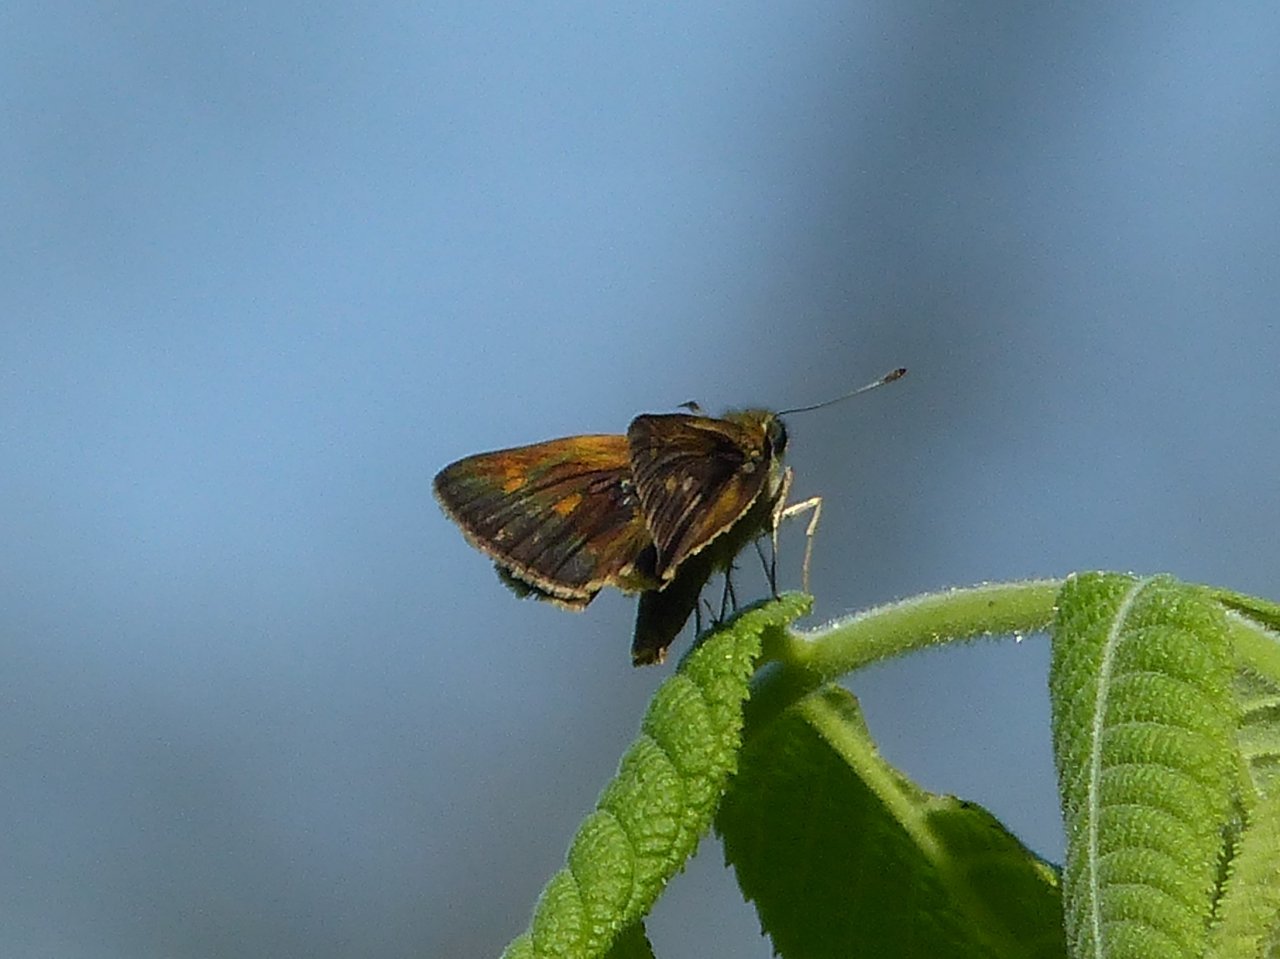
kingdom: Animalia
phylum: Arthropoda
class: Insecta
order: Lepidoptera
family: Hesperiidae
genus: Polites
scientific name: Polites themistocles
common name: Tawny-edged Skipper
